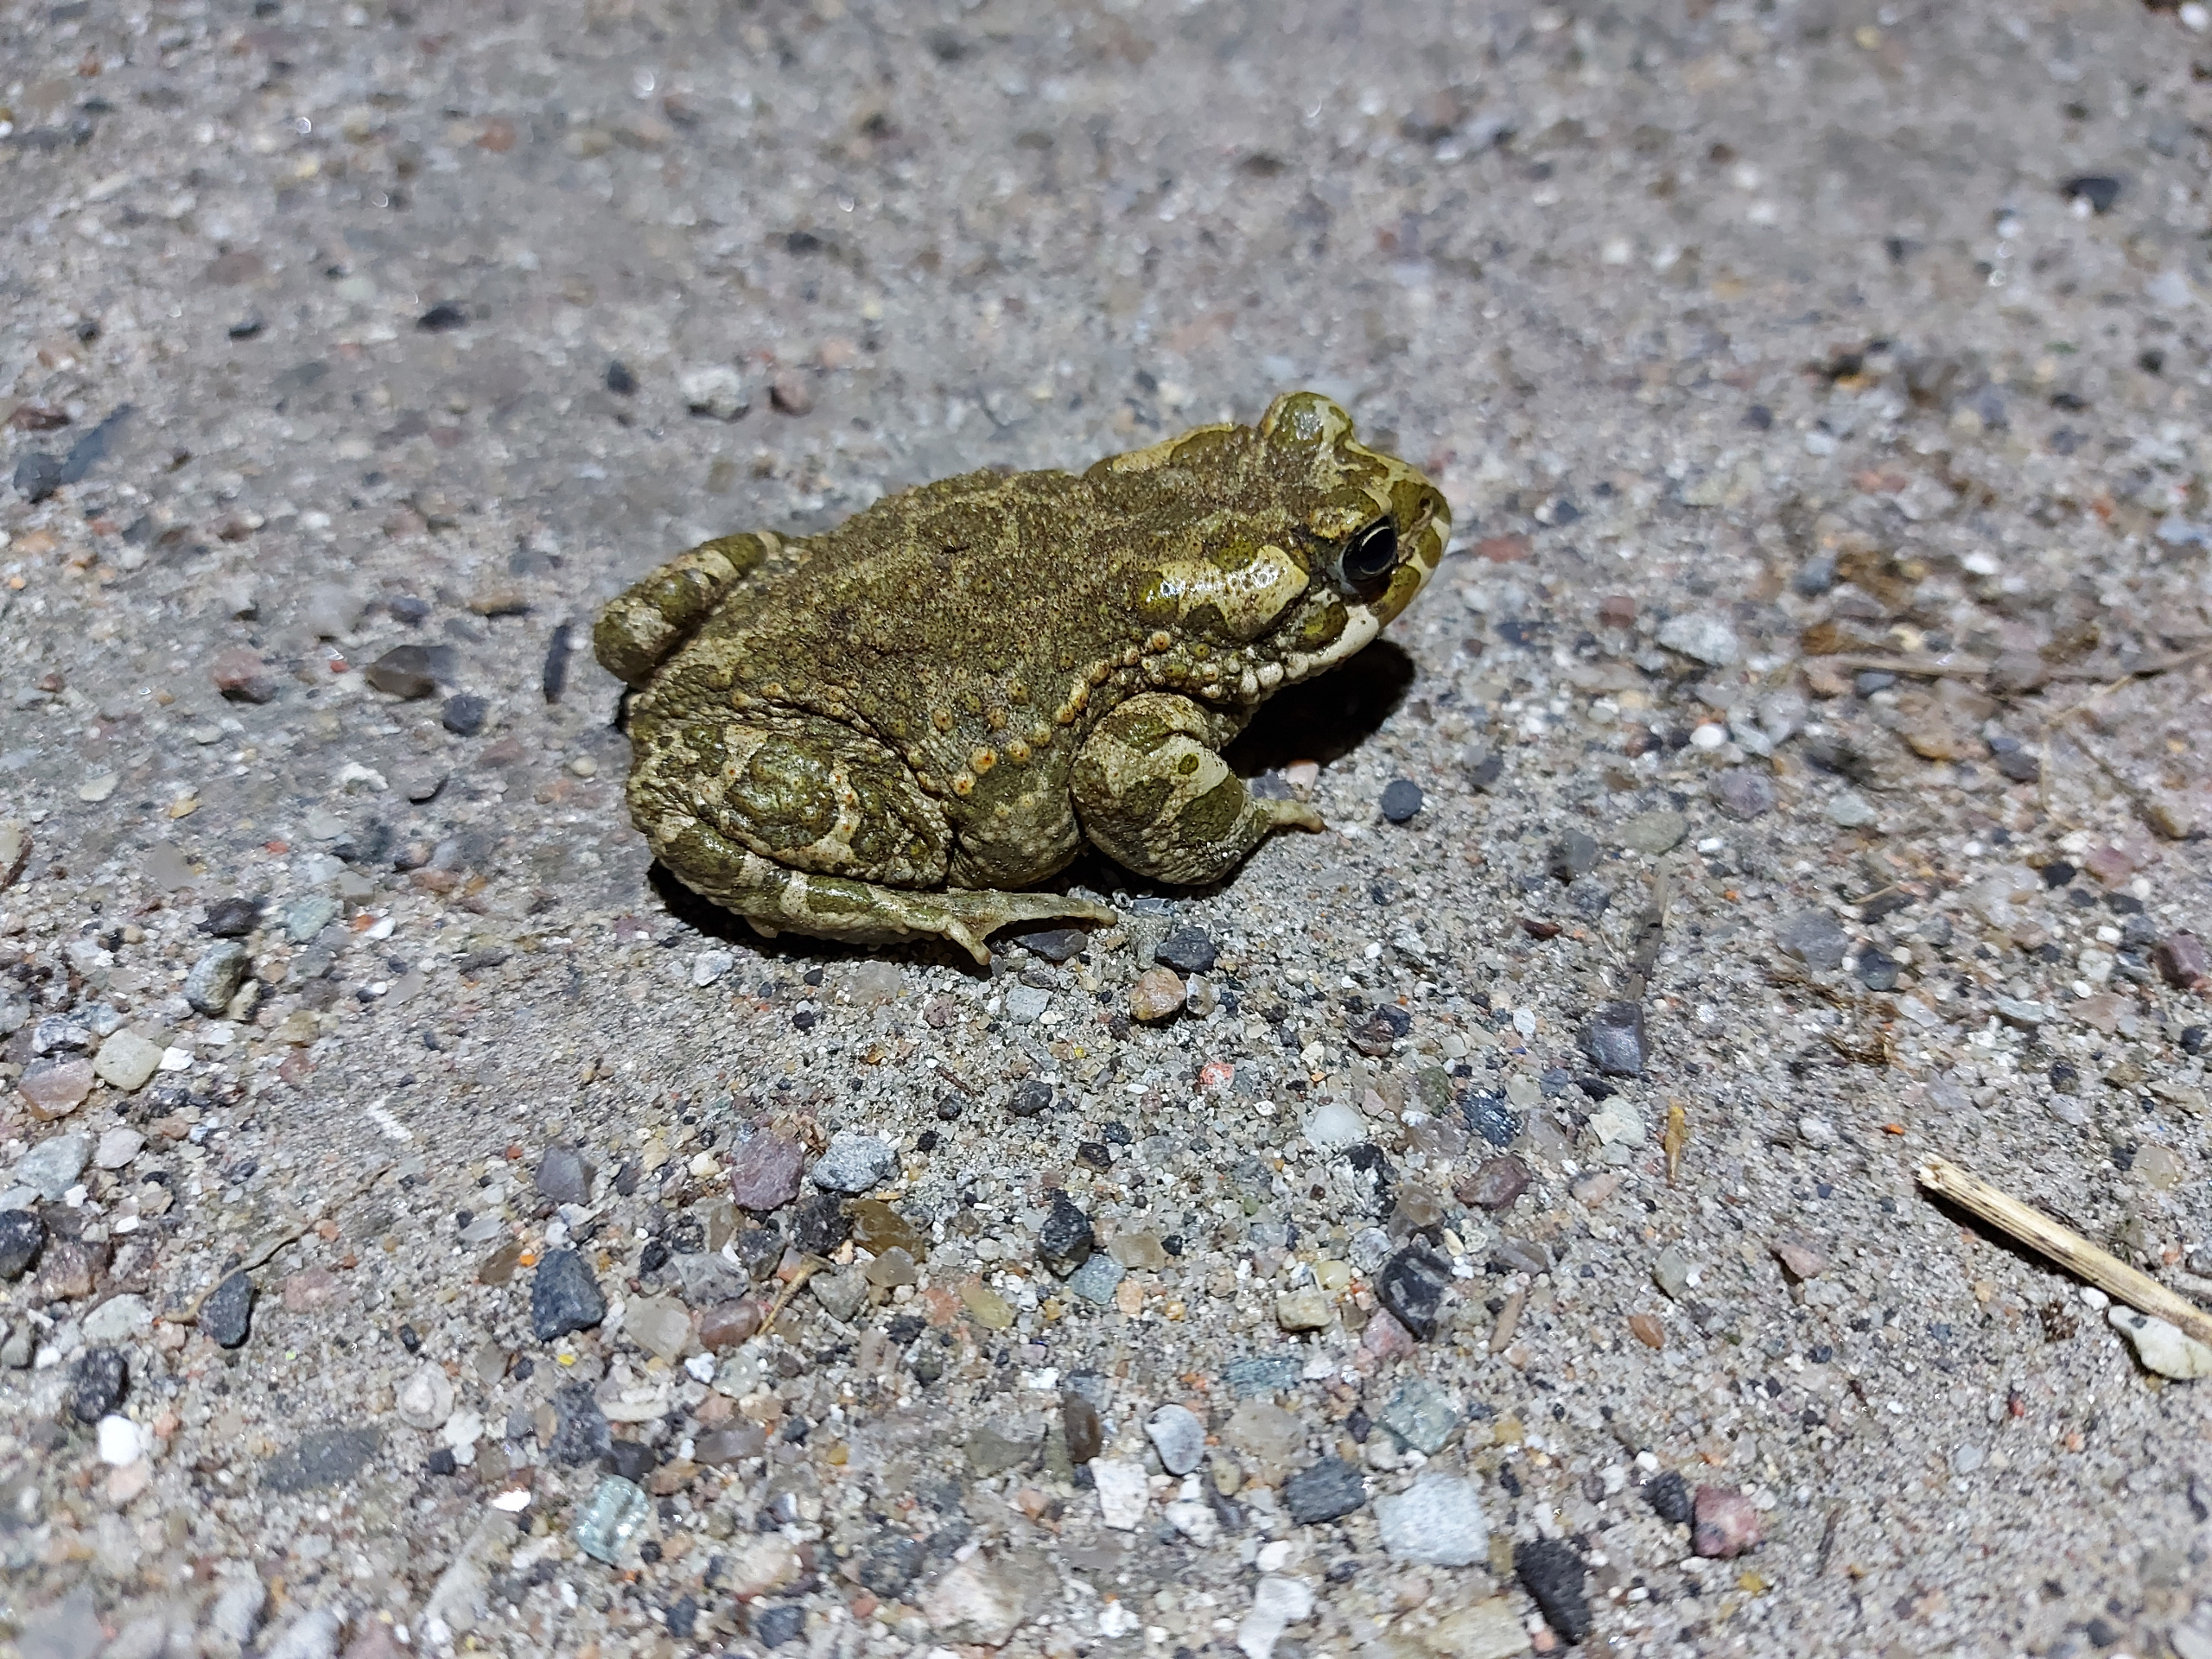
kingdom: Animalia
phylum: Chordata
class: Amphibia
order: Anura
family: Bufonidae
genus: Bufotes
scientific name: Bufotes viridis
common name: Grønbroget tudse
